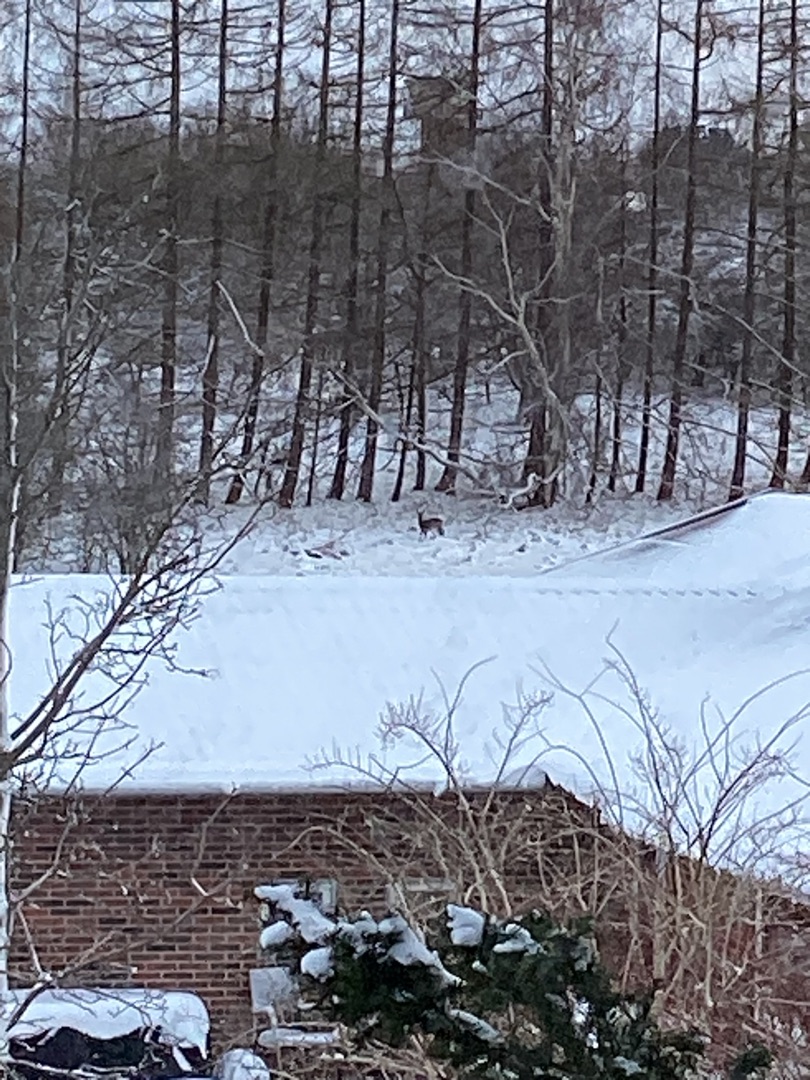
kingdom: Animalia
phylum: Chordata
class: Mammalia
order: Artiodactyla
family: Cervidae
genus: Capreolus
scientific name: Capreolus capreolus
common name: Rådyr
